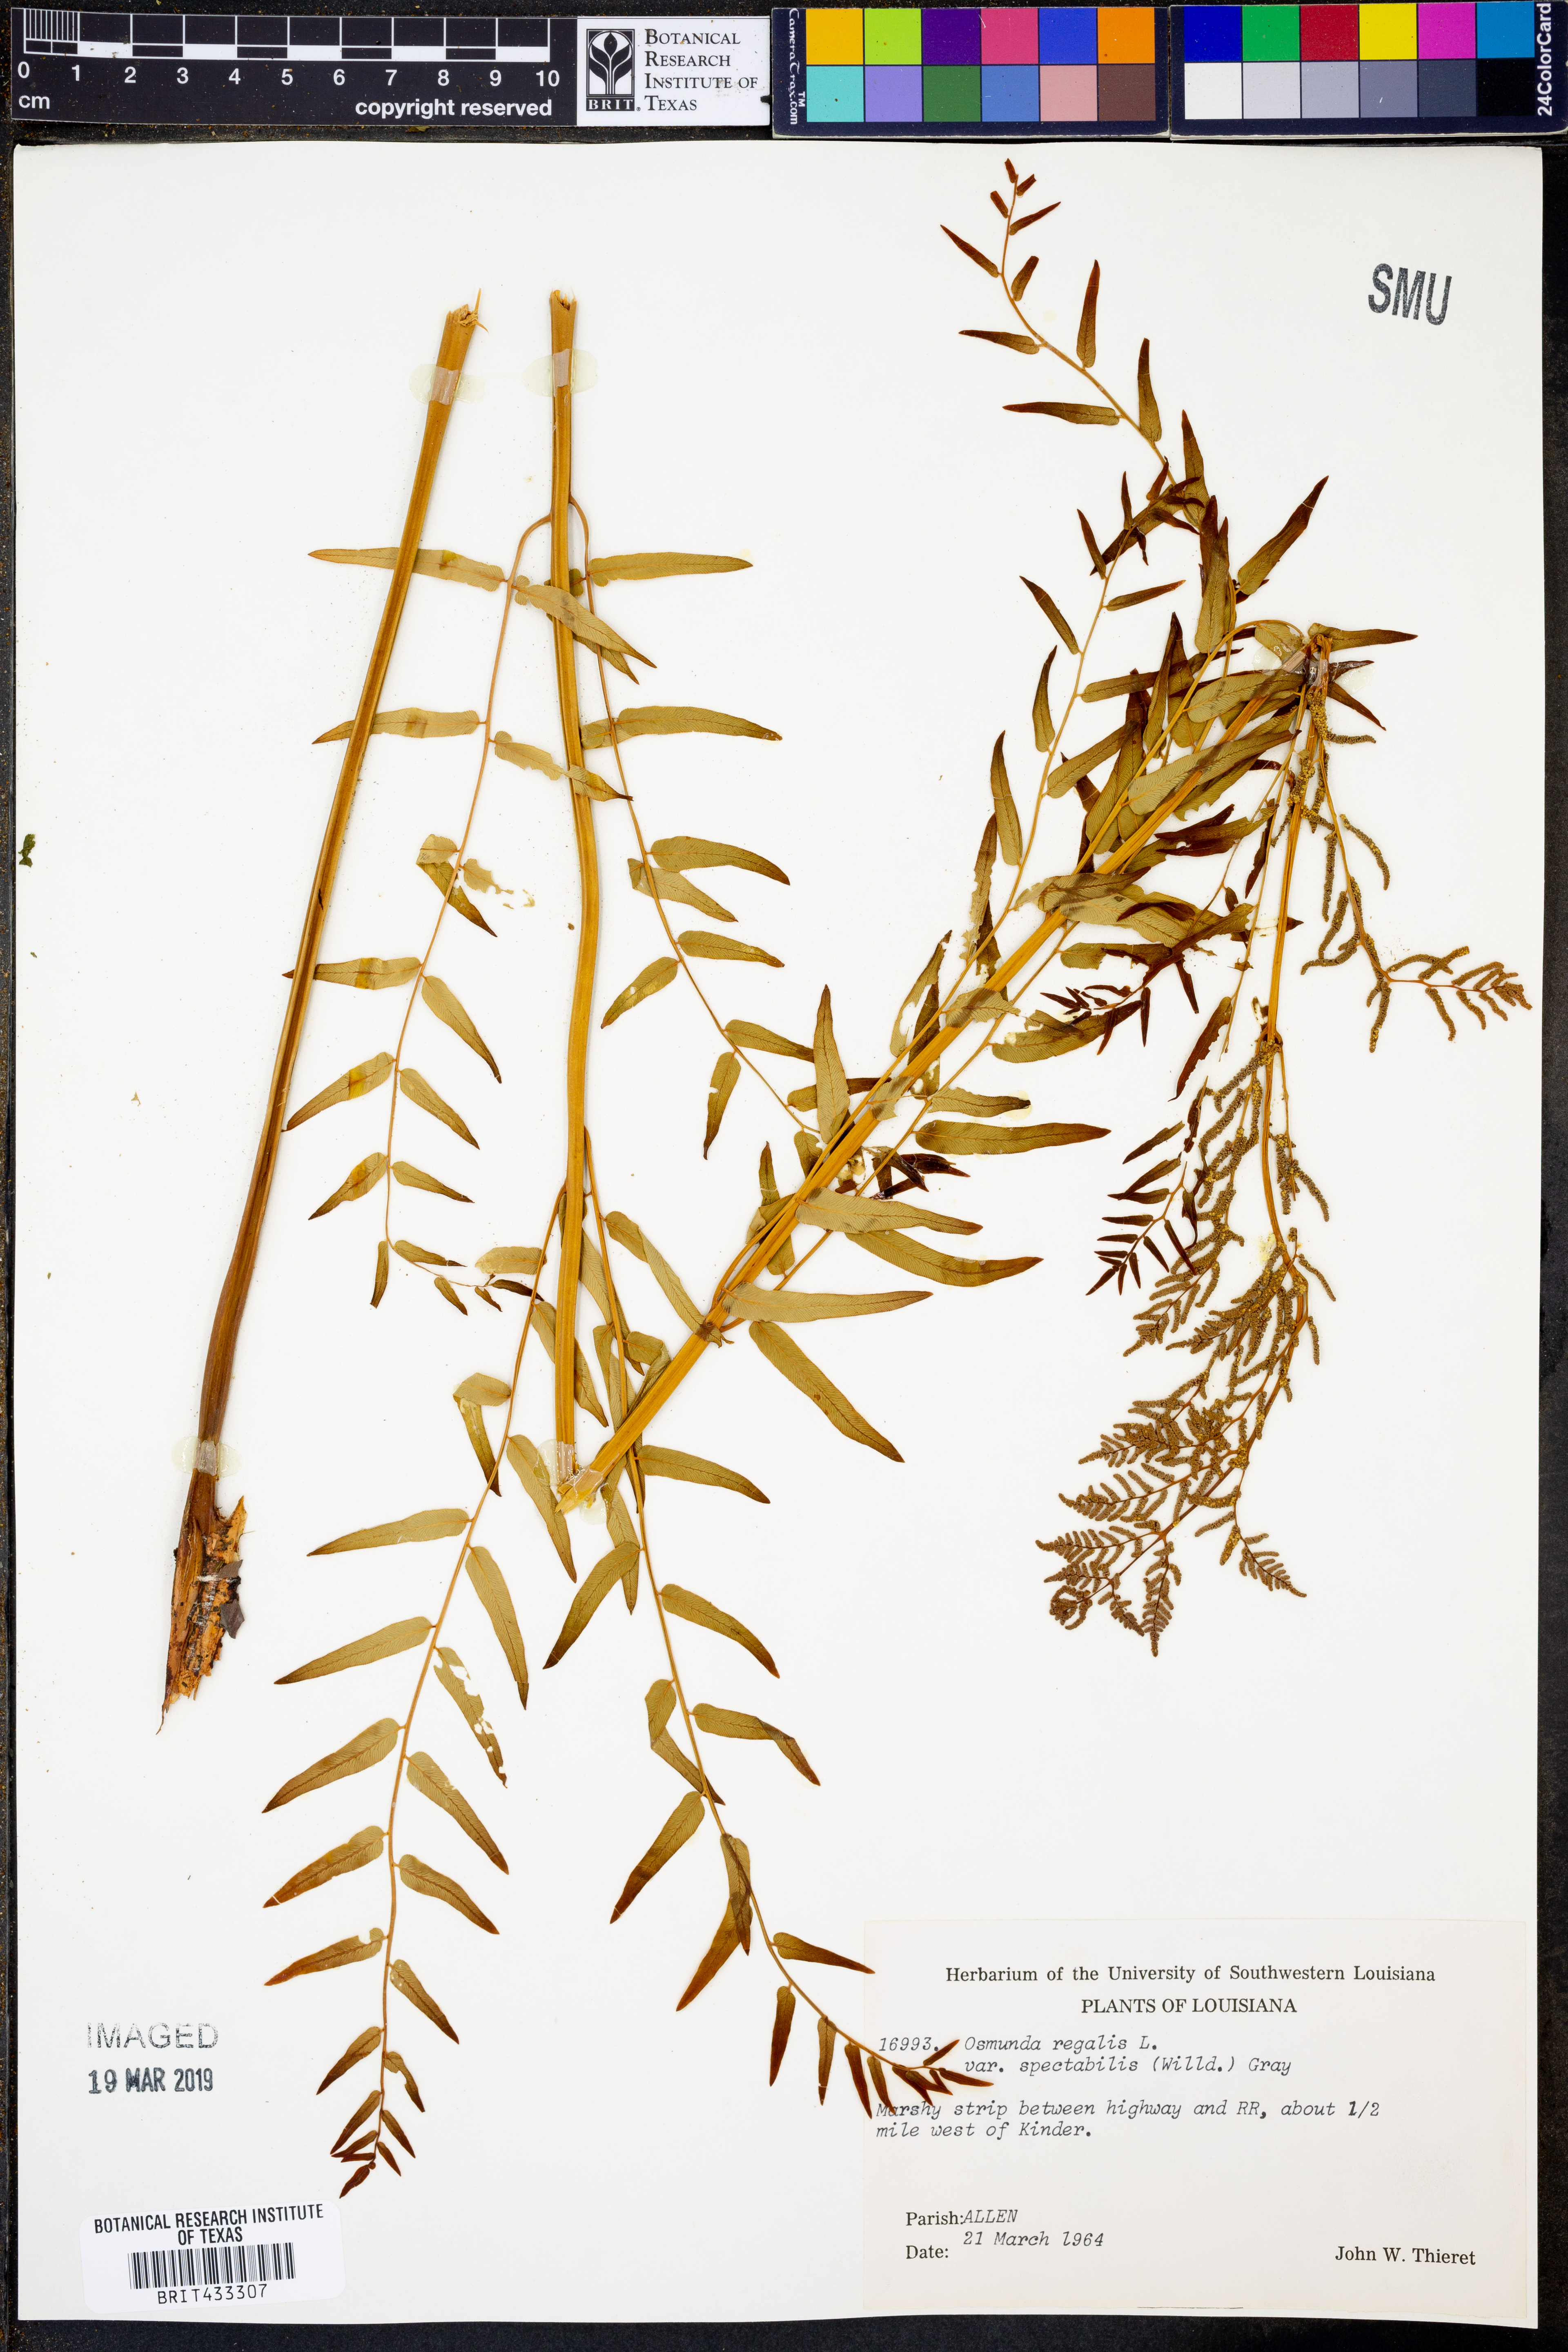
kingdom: Plantae
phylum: Tracheophyta
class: Polypodiopsida
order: Osmundales
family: Osmundaceae
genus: Osmunda
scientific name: Osmunda spectabilis
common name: American royal fern
